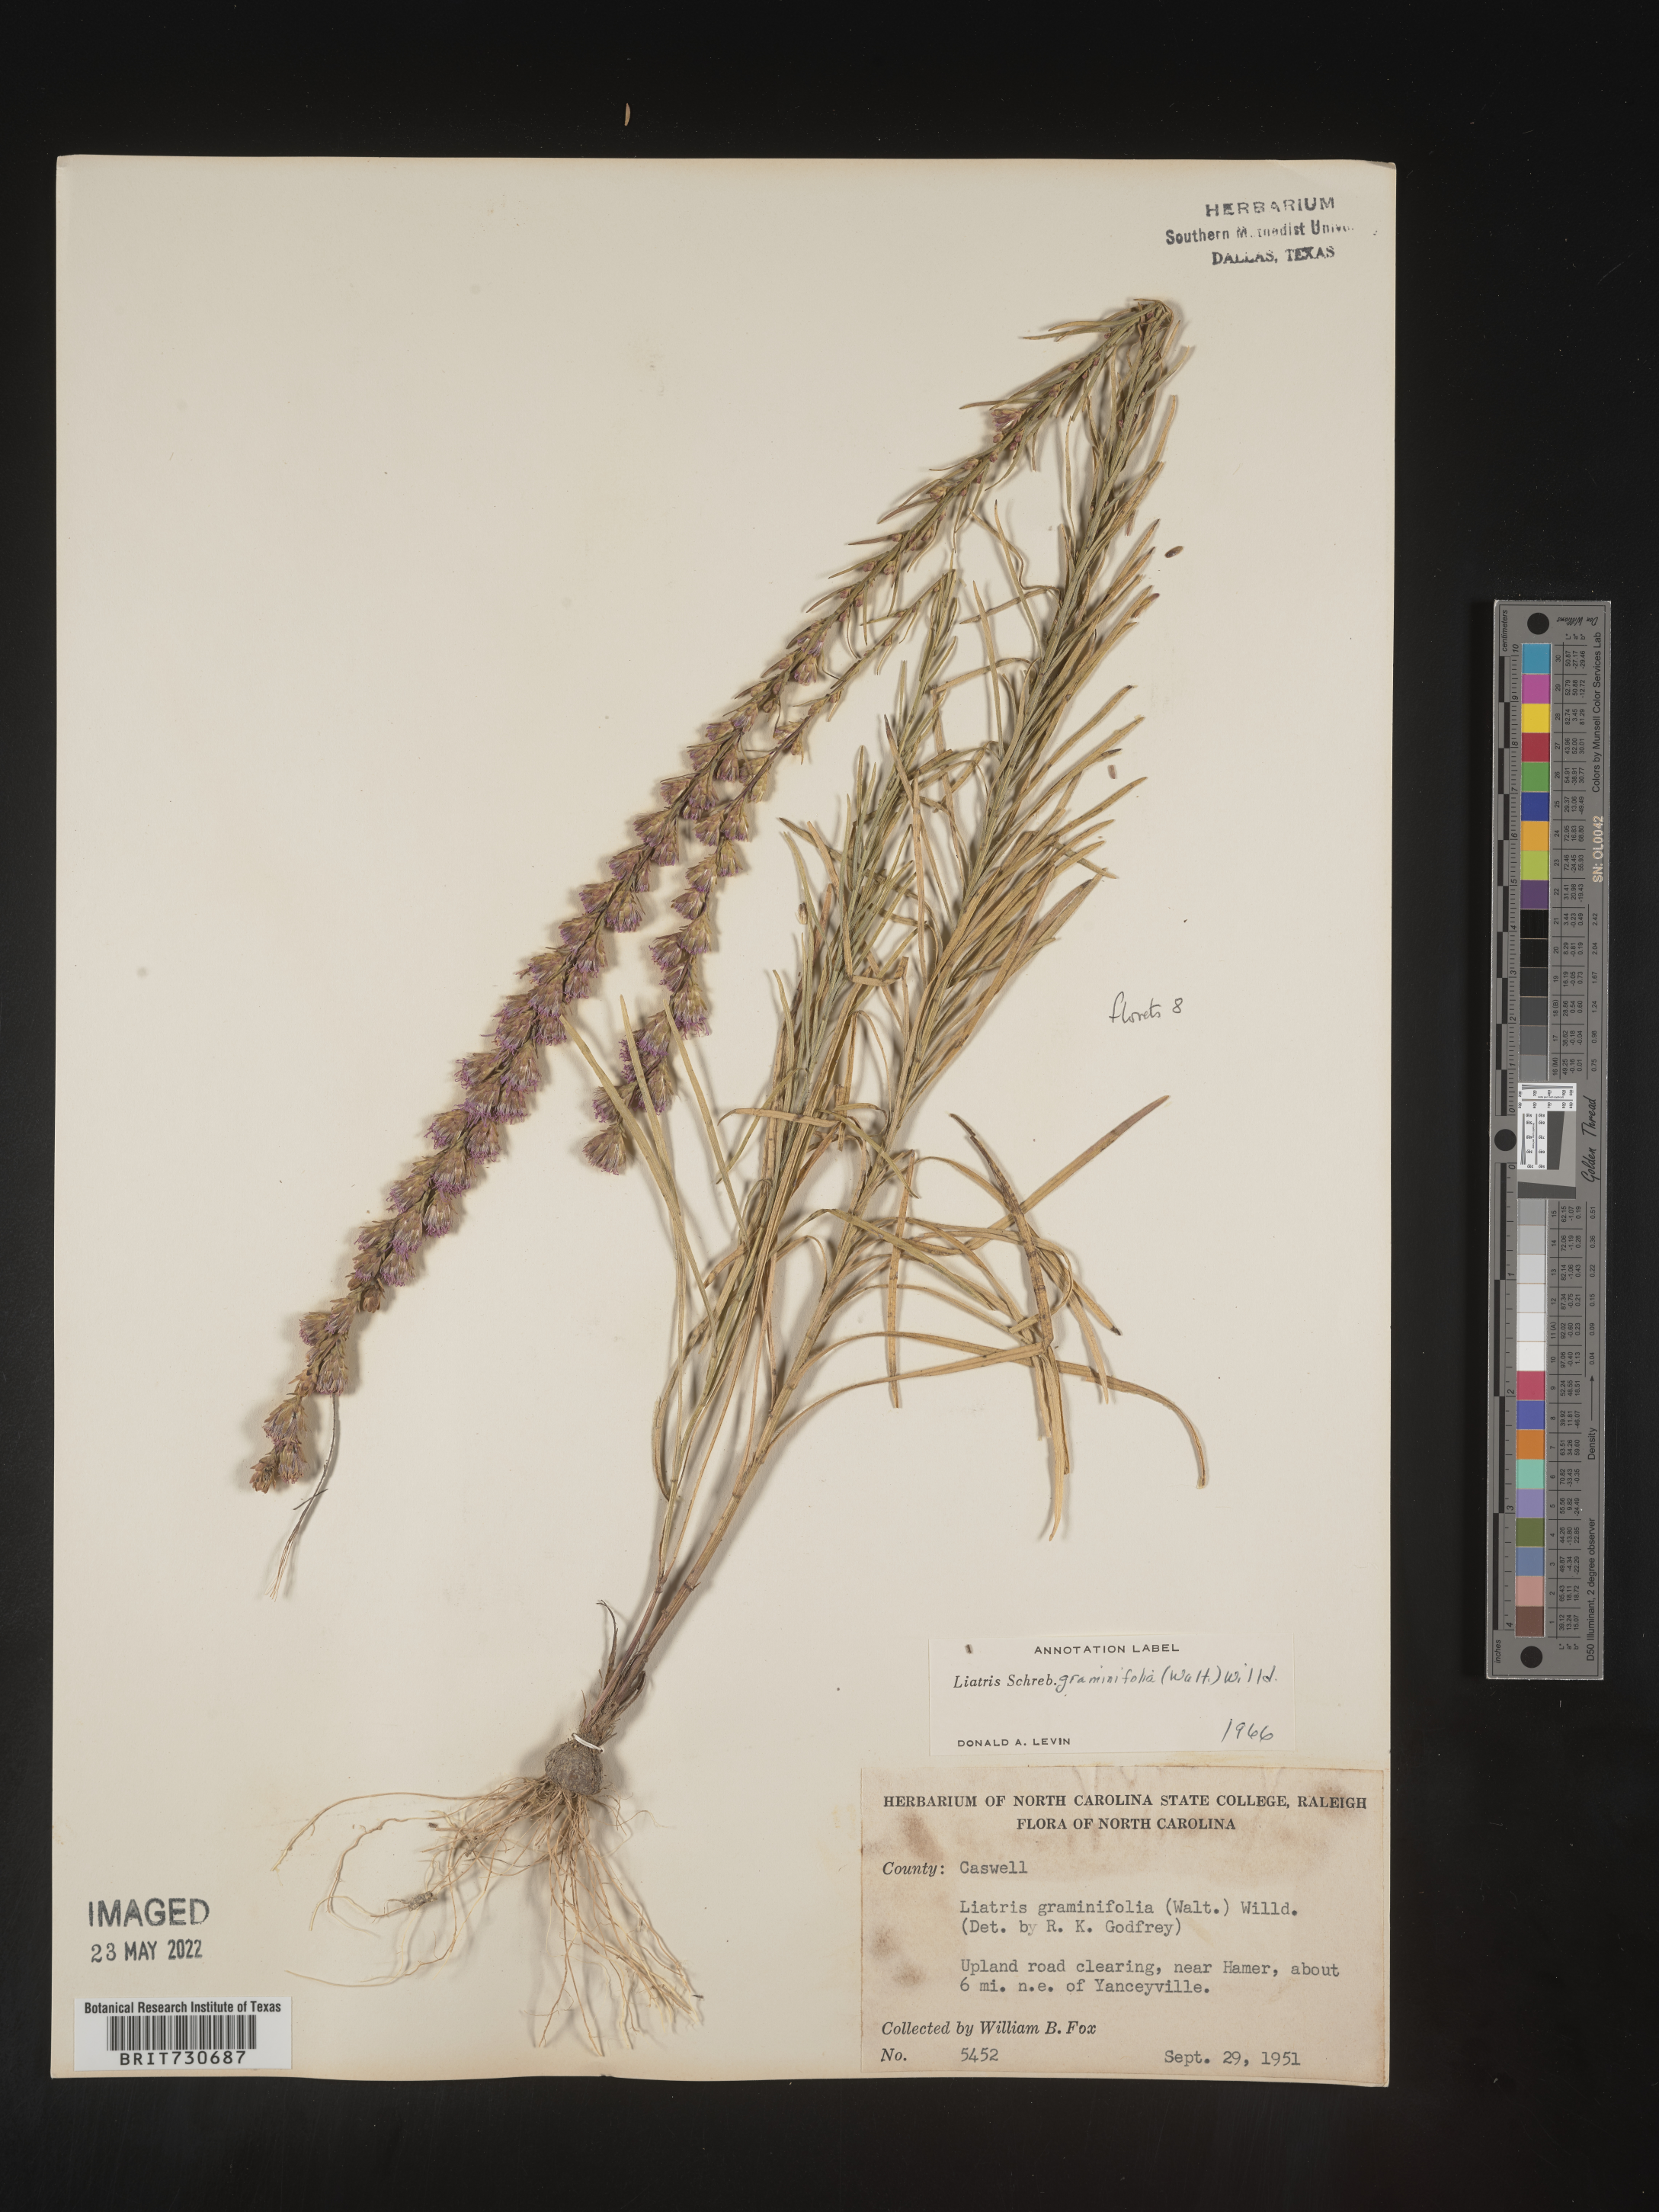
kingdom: Plantae
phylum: Tracheophyta
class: Magnoliopsida
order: Asterales
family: Asteraceae
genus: Liatris
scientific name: Liatris pilosa
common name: Grass-leaf gayfeather
